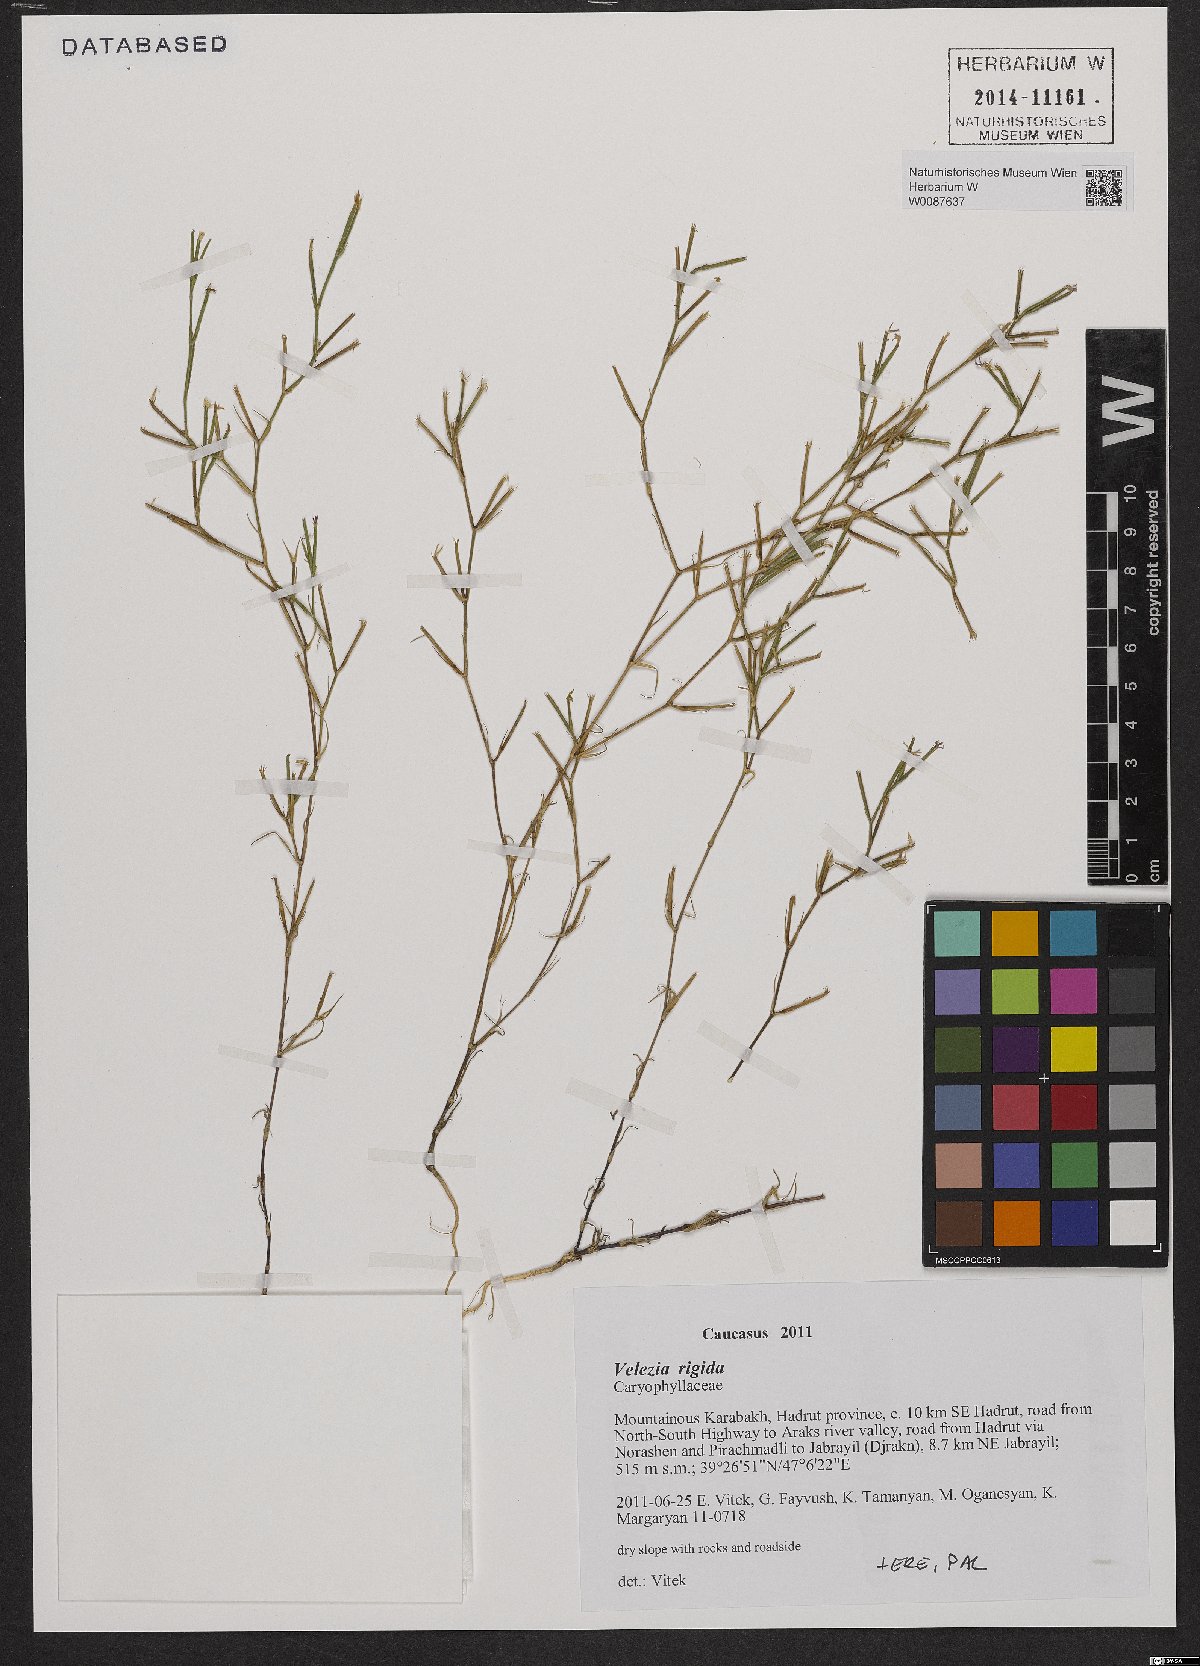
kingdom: Plantae
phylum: Tracheophyta
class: Magnoliopsida
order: Caryophyllales
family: Caryophyllaceae
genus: Dianthus
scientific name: Dianthus nudiflorus
